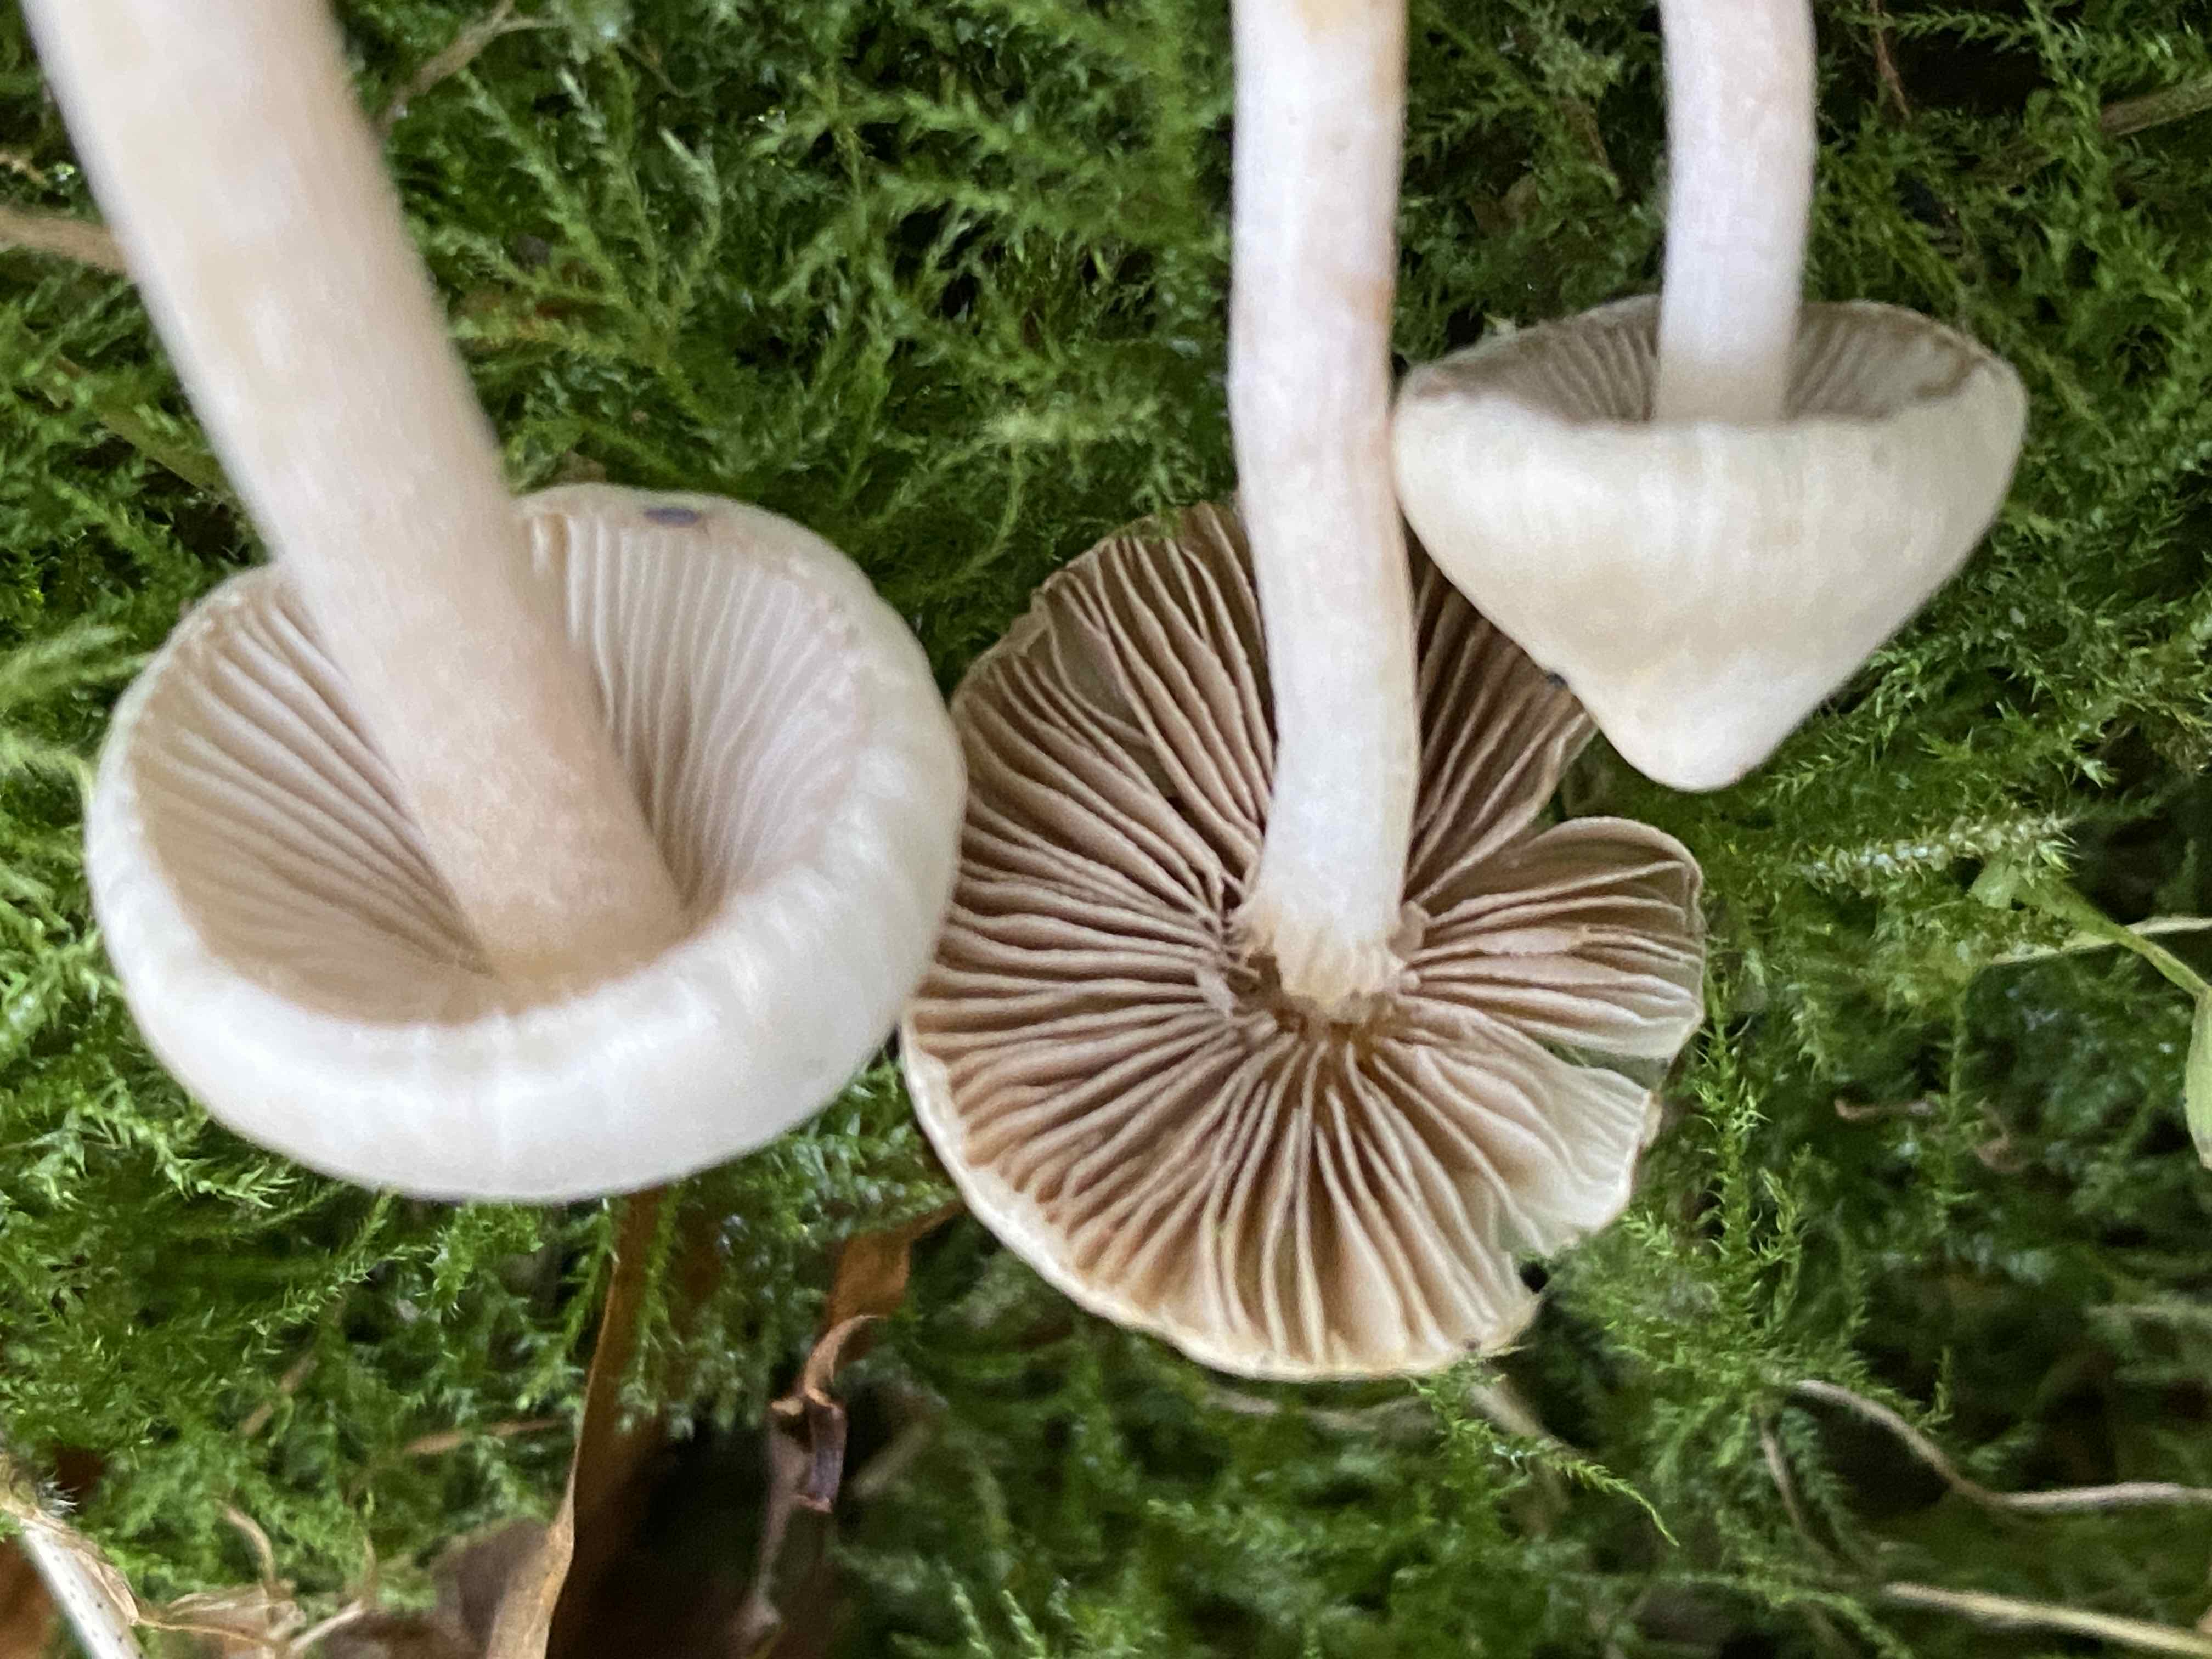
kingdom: Fungi
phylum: Basidiomycota
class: Agaricomycetes
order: Agaricales
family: Inocybaceae
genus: Inocybe
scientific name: Inocybe
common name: almindelig trævlhat
